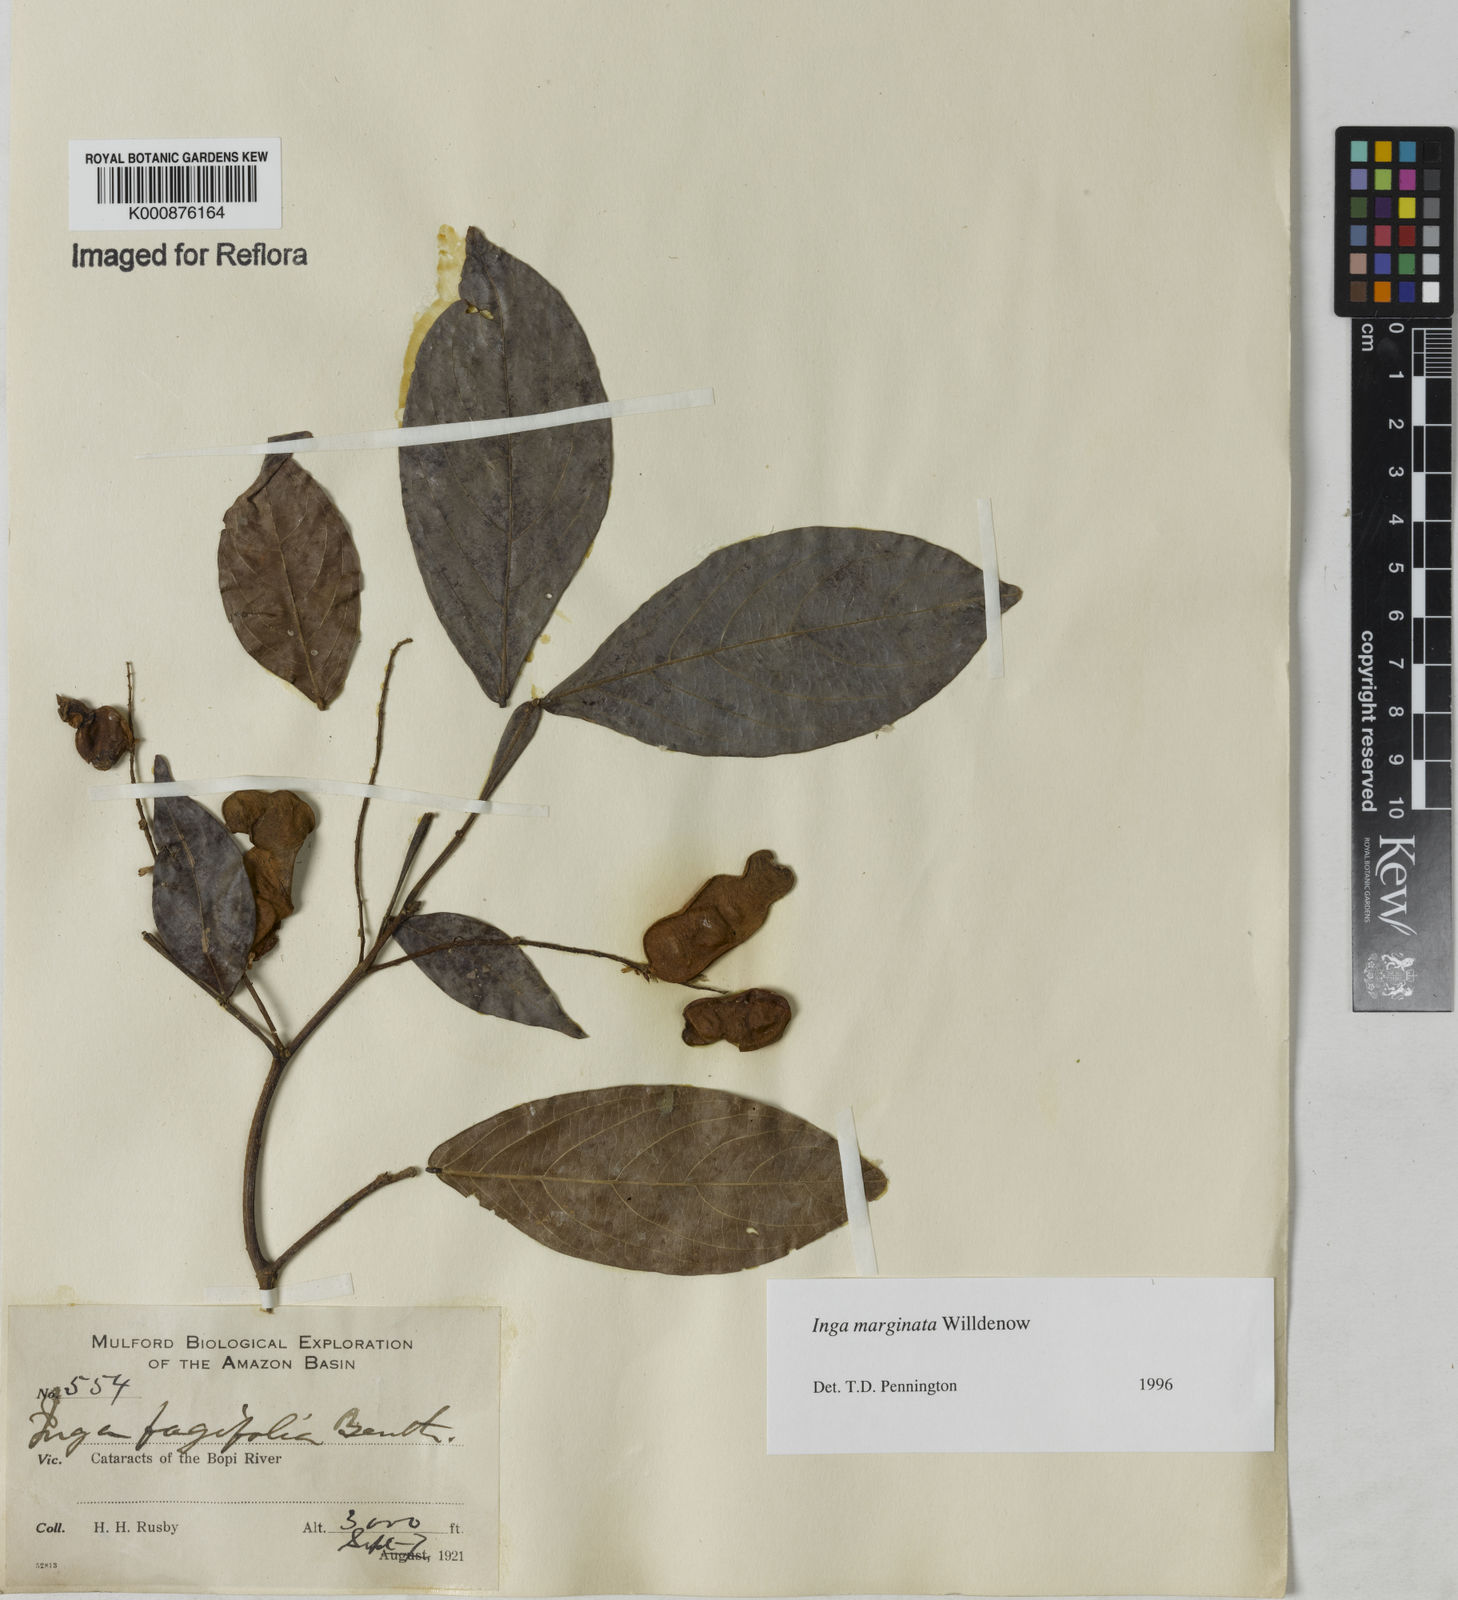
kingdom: Plantae
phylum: Tracheophyta
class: Magnoliopsida
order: Fabales
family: Fabaceae
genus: Inga
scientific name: Inga marginata
